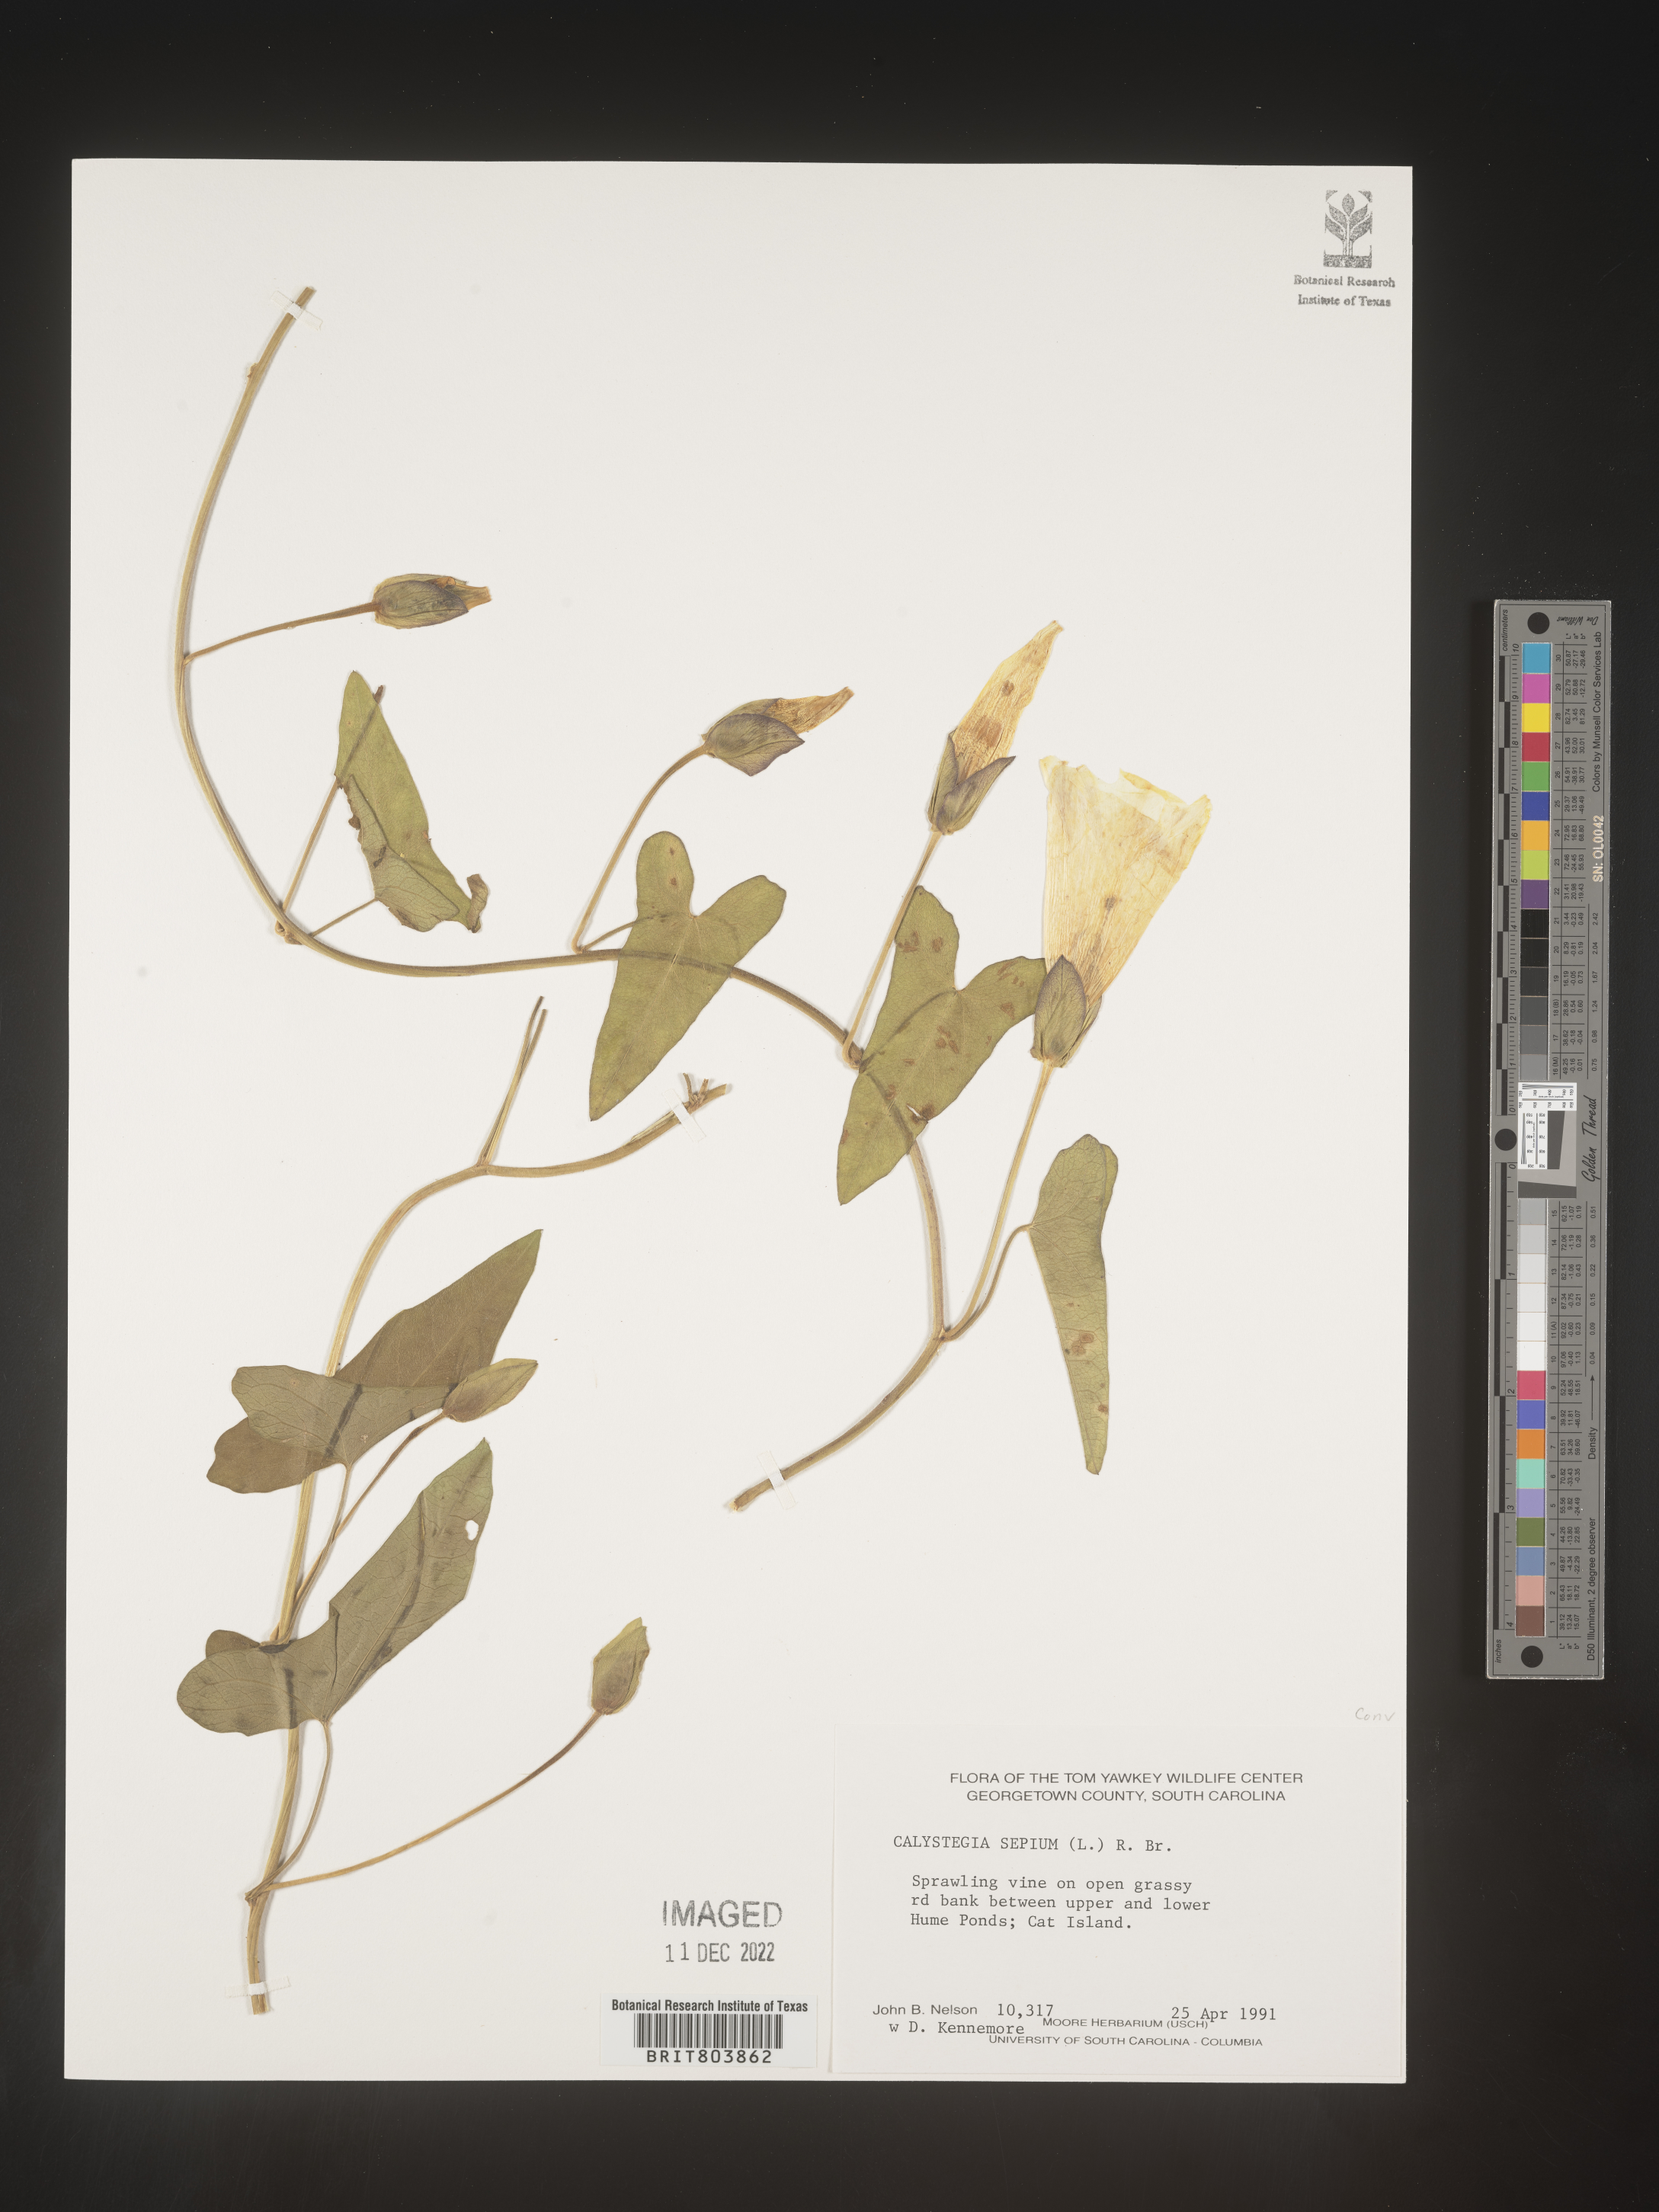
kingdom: Plantae
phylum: Tracheophyta
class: Magnoliopsida
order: Solanales
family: Convolvulaceae
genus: Calystegia
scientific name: Calystegia sepium
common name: Hedge bindweed
